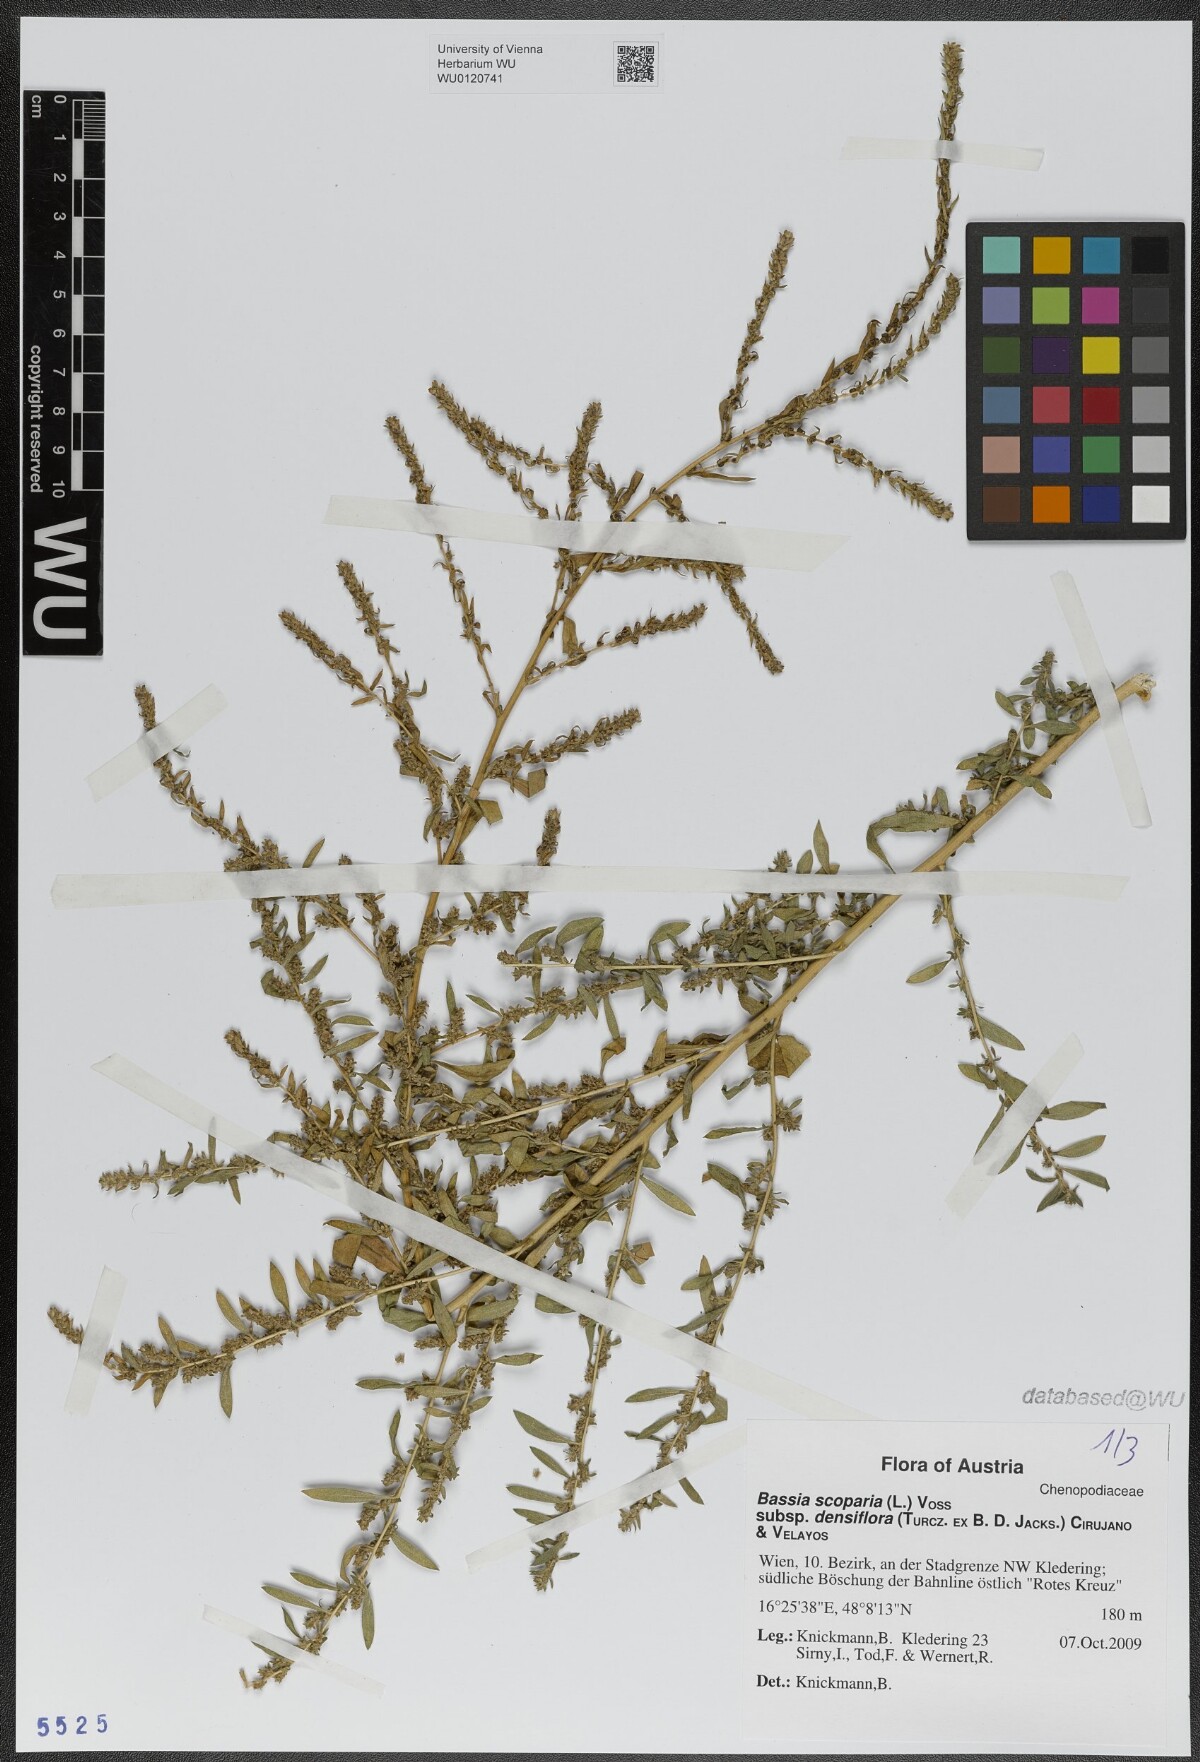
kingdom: Plantae
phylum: Tracheophyta
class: Magnoliopsida
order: Caryophyllales
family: Amaranthaceae
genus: Bassia
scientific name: Bassia scoparia
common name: Belvedere
